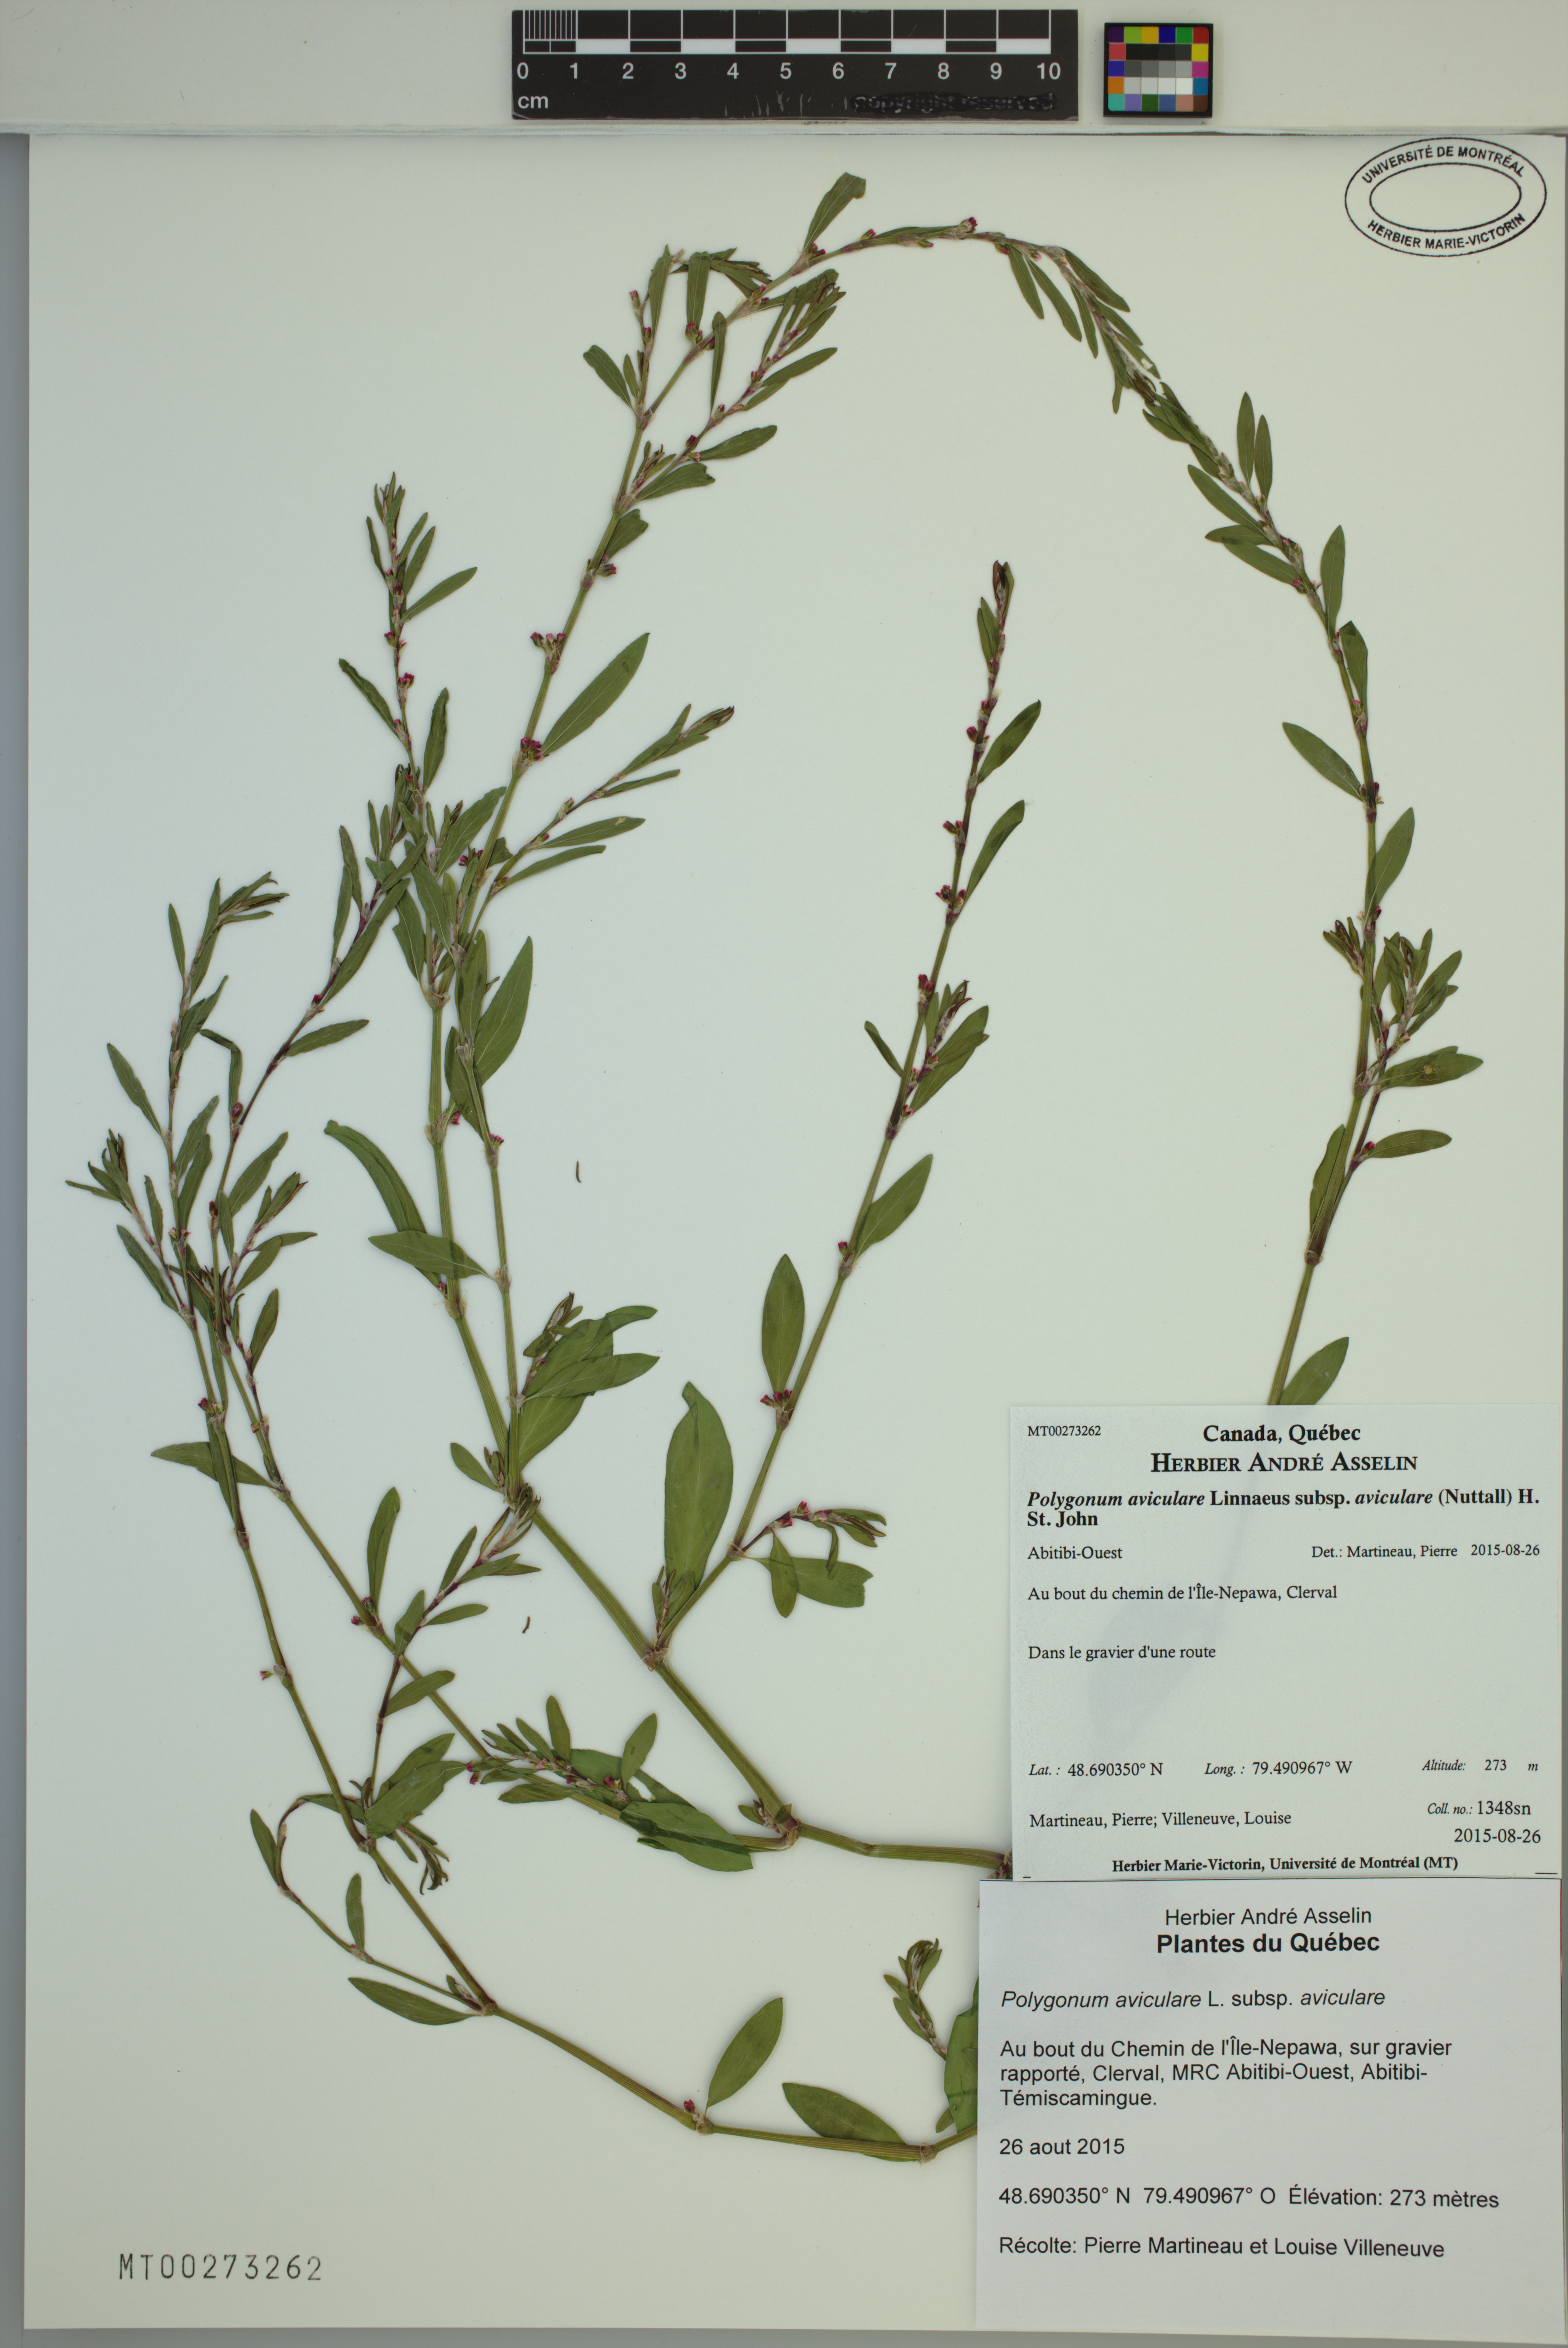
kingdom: Plantae
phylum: Tracheophyta
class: Magnoliopsida
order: Caryophyllales
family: Polygonaceae
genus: Polygonum
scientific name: Polygonum aviculare
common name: Prostrate knotweed
